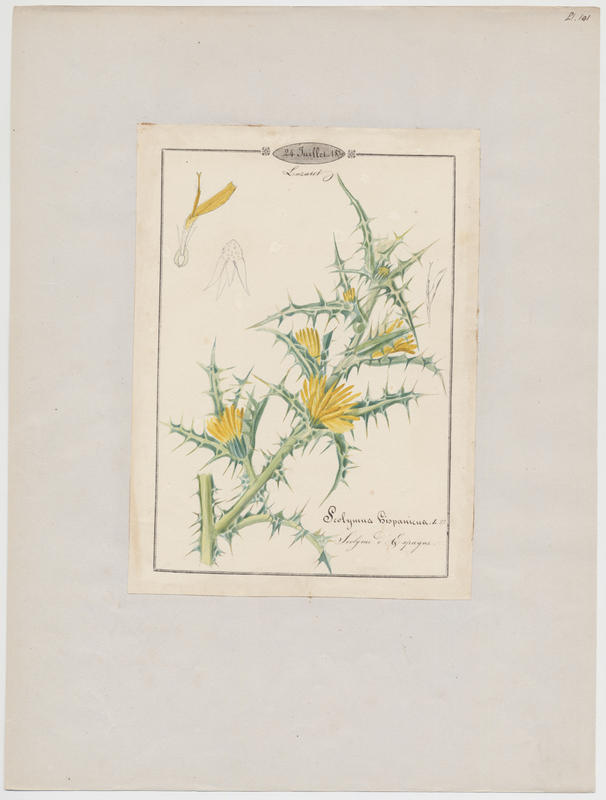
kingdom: Plantae
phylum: Tracheophyta
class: Magnoliopsida
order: Asterales
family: Asteraceae
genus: Scolymus
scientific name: Scolymus hispanicus
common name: Golden thistle
